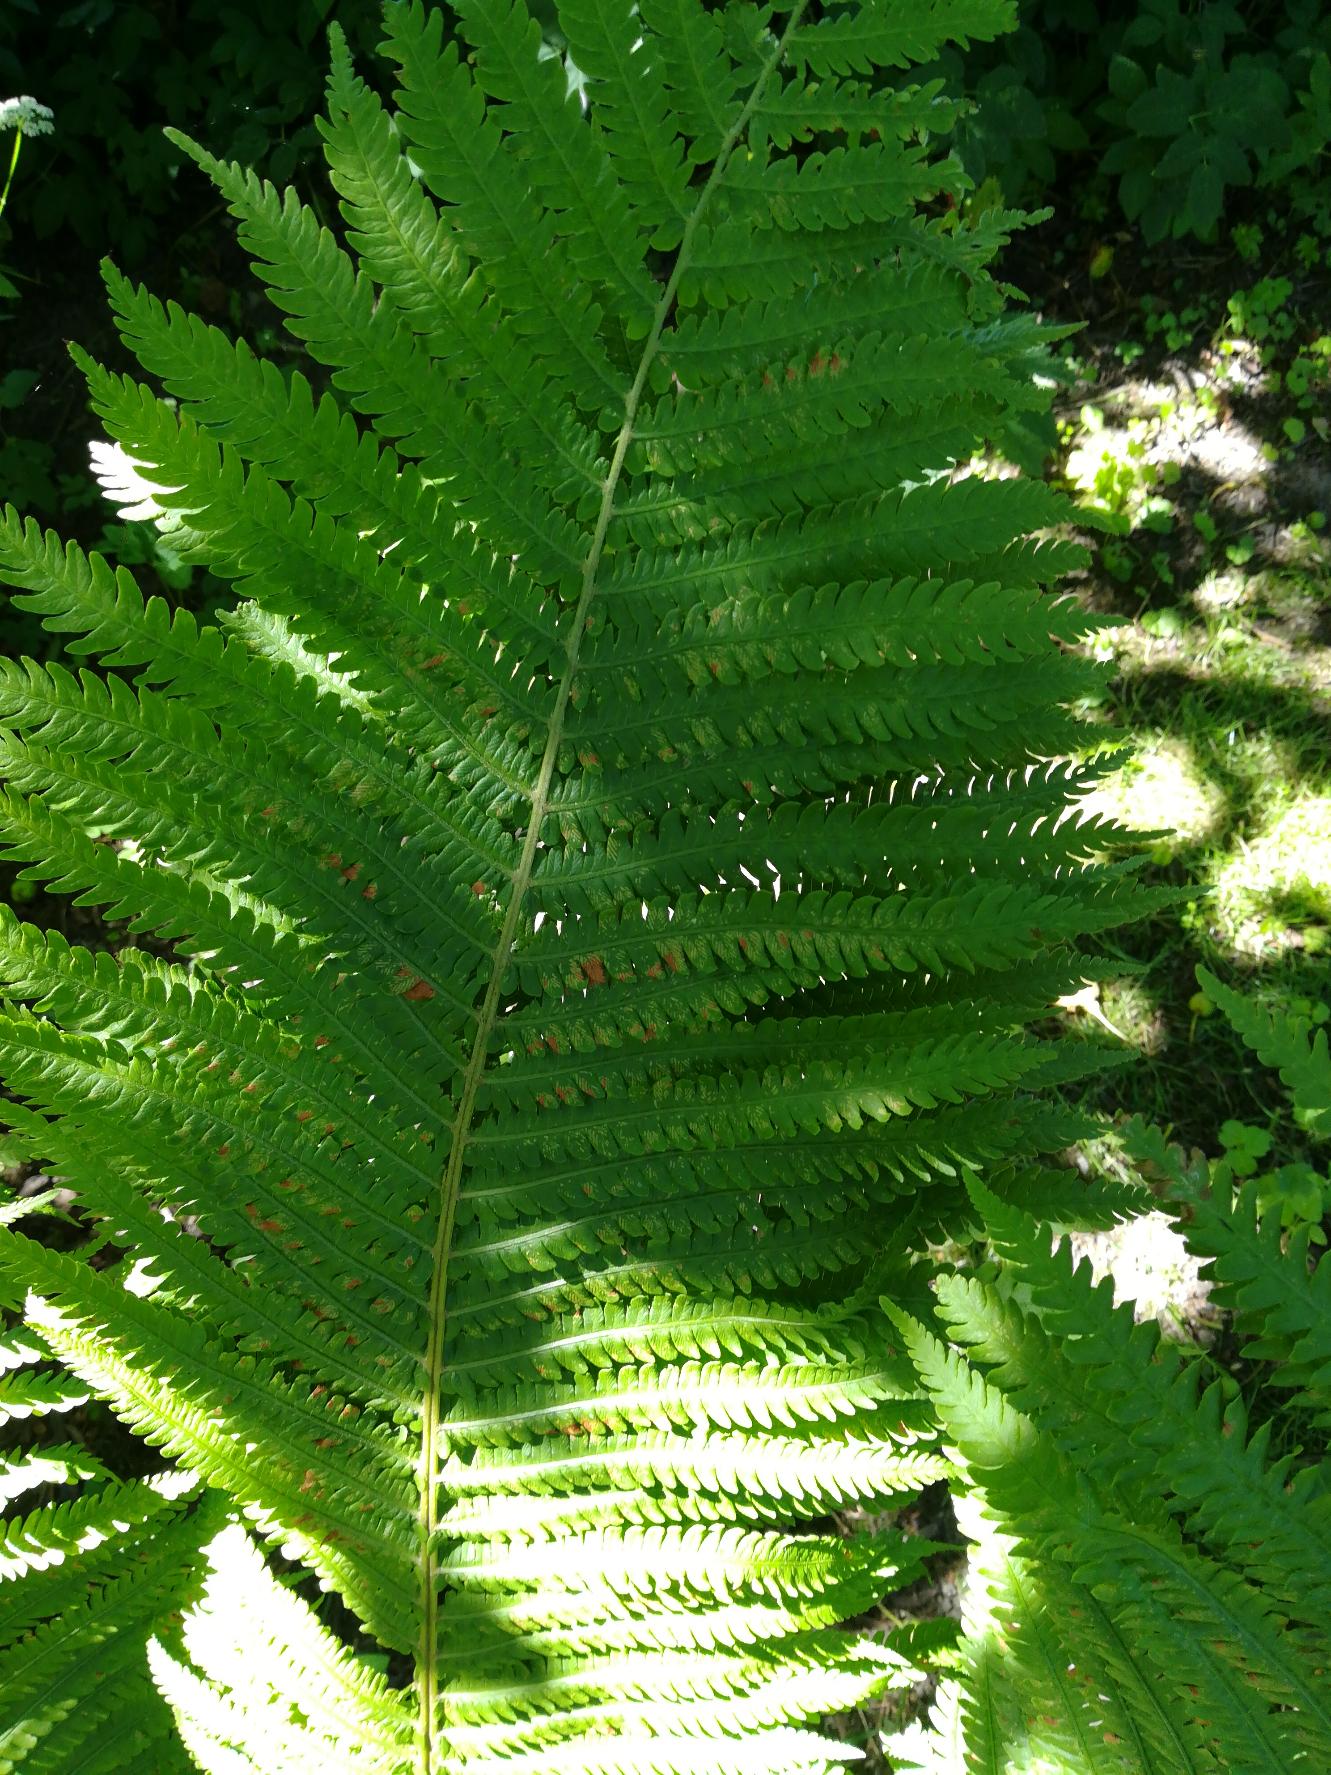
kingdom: Plantae
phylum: Tracheophyta
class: Polypodiopsida
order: Polypodiales
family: Onocleaceae
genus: Matteuccia
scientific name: Matteuccia struthiopteris
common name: Strudsvinge
